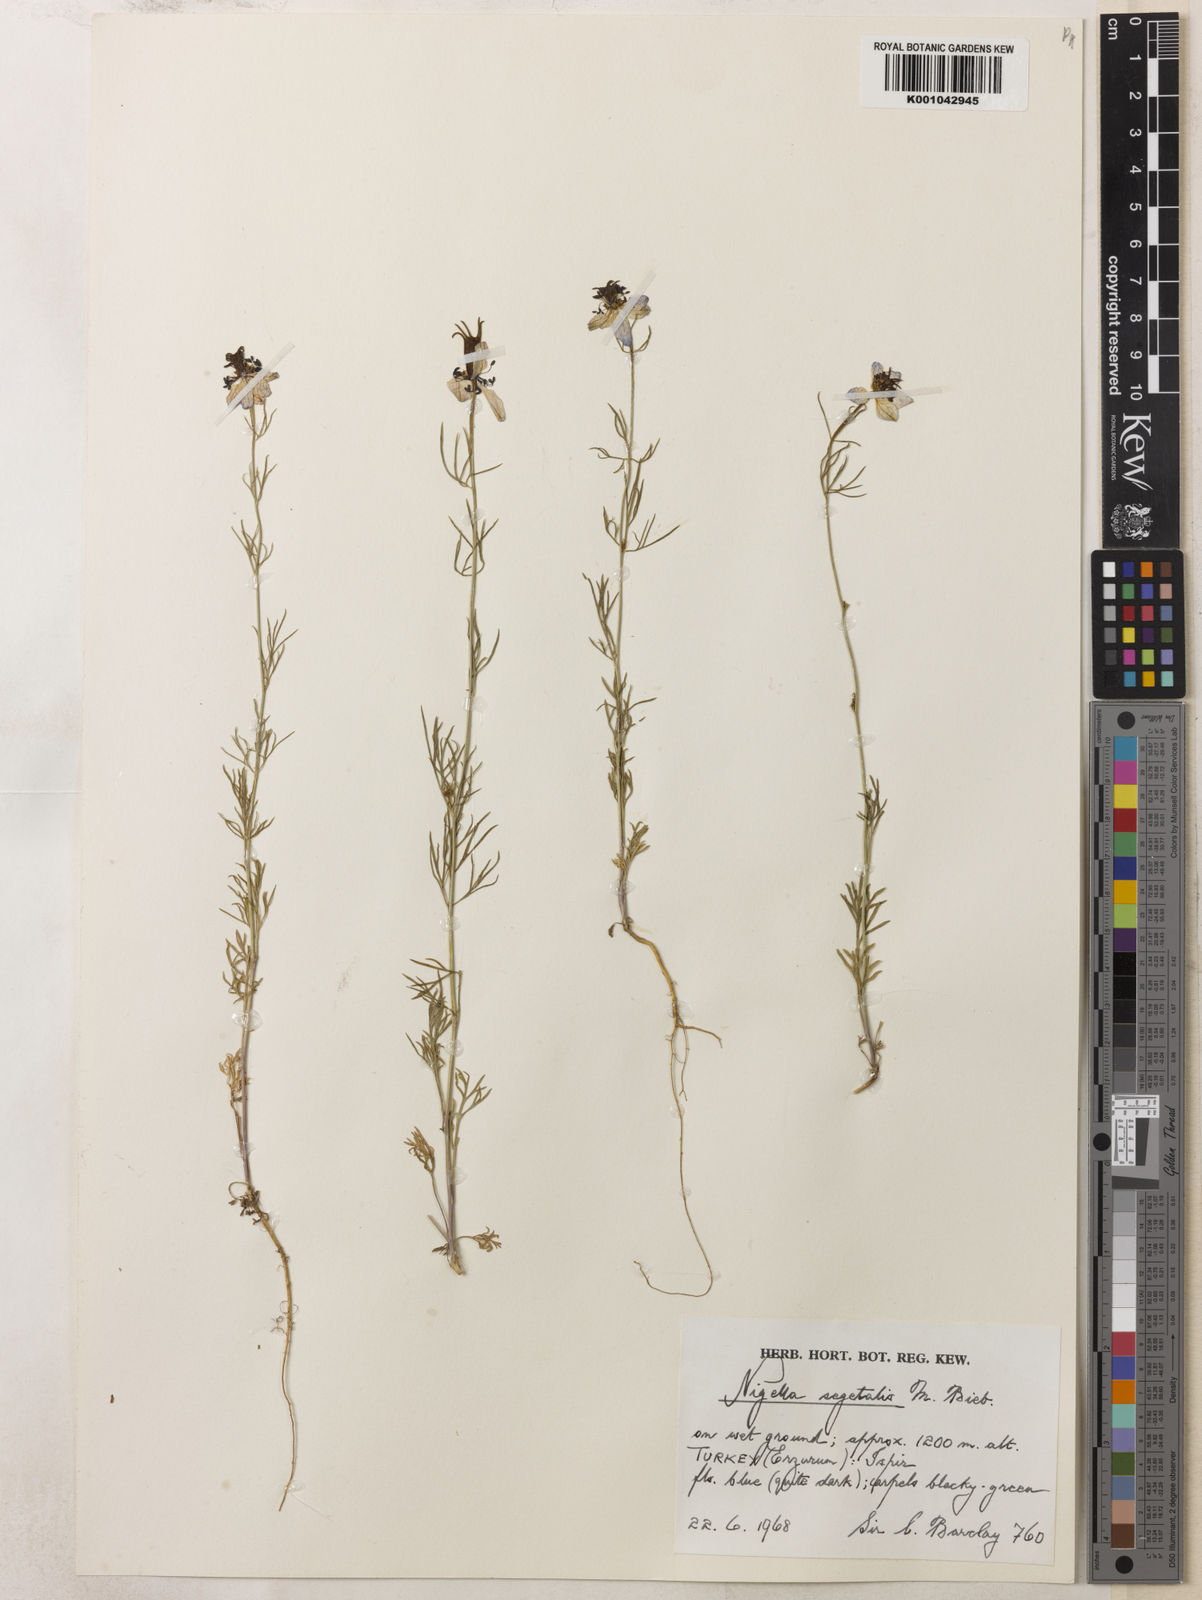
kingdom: Plantae
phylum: Tracheophyta
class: Magnoliopsida
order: Ranunculales
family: Ranunculaceae
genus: Nigella
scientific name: Nigella segetalis
